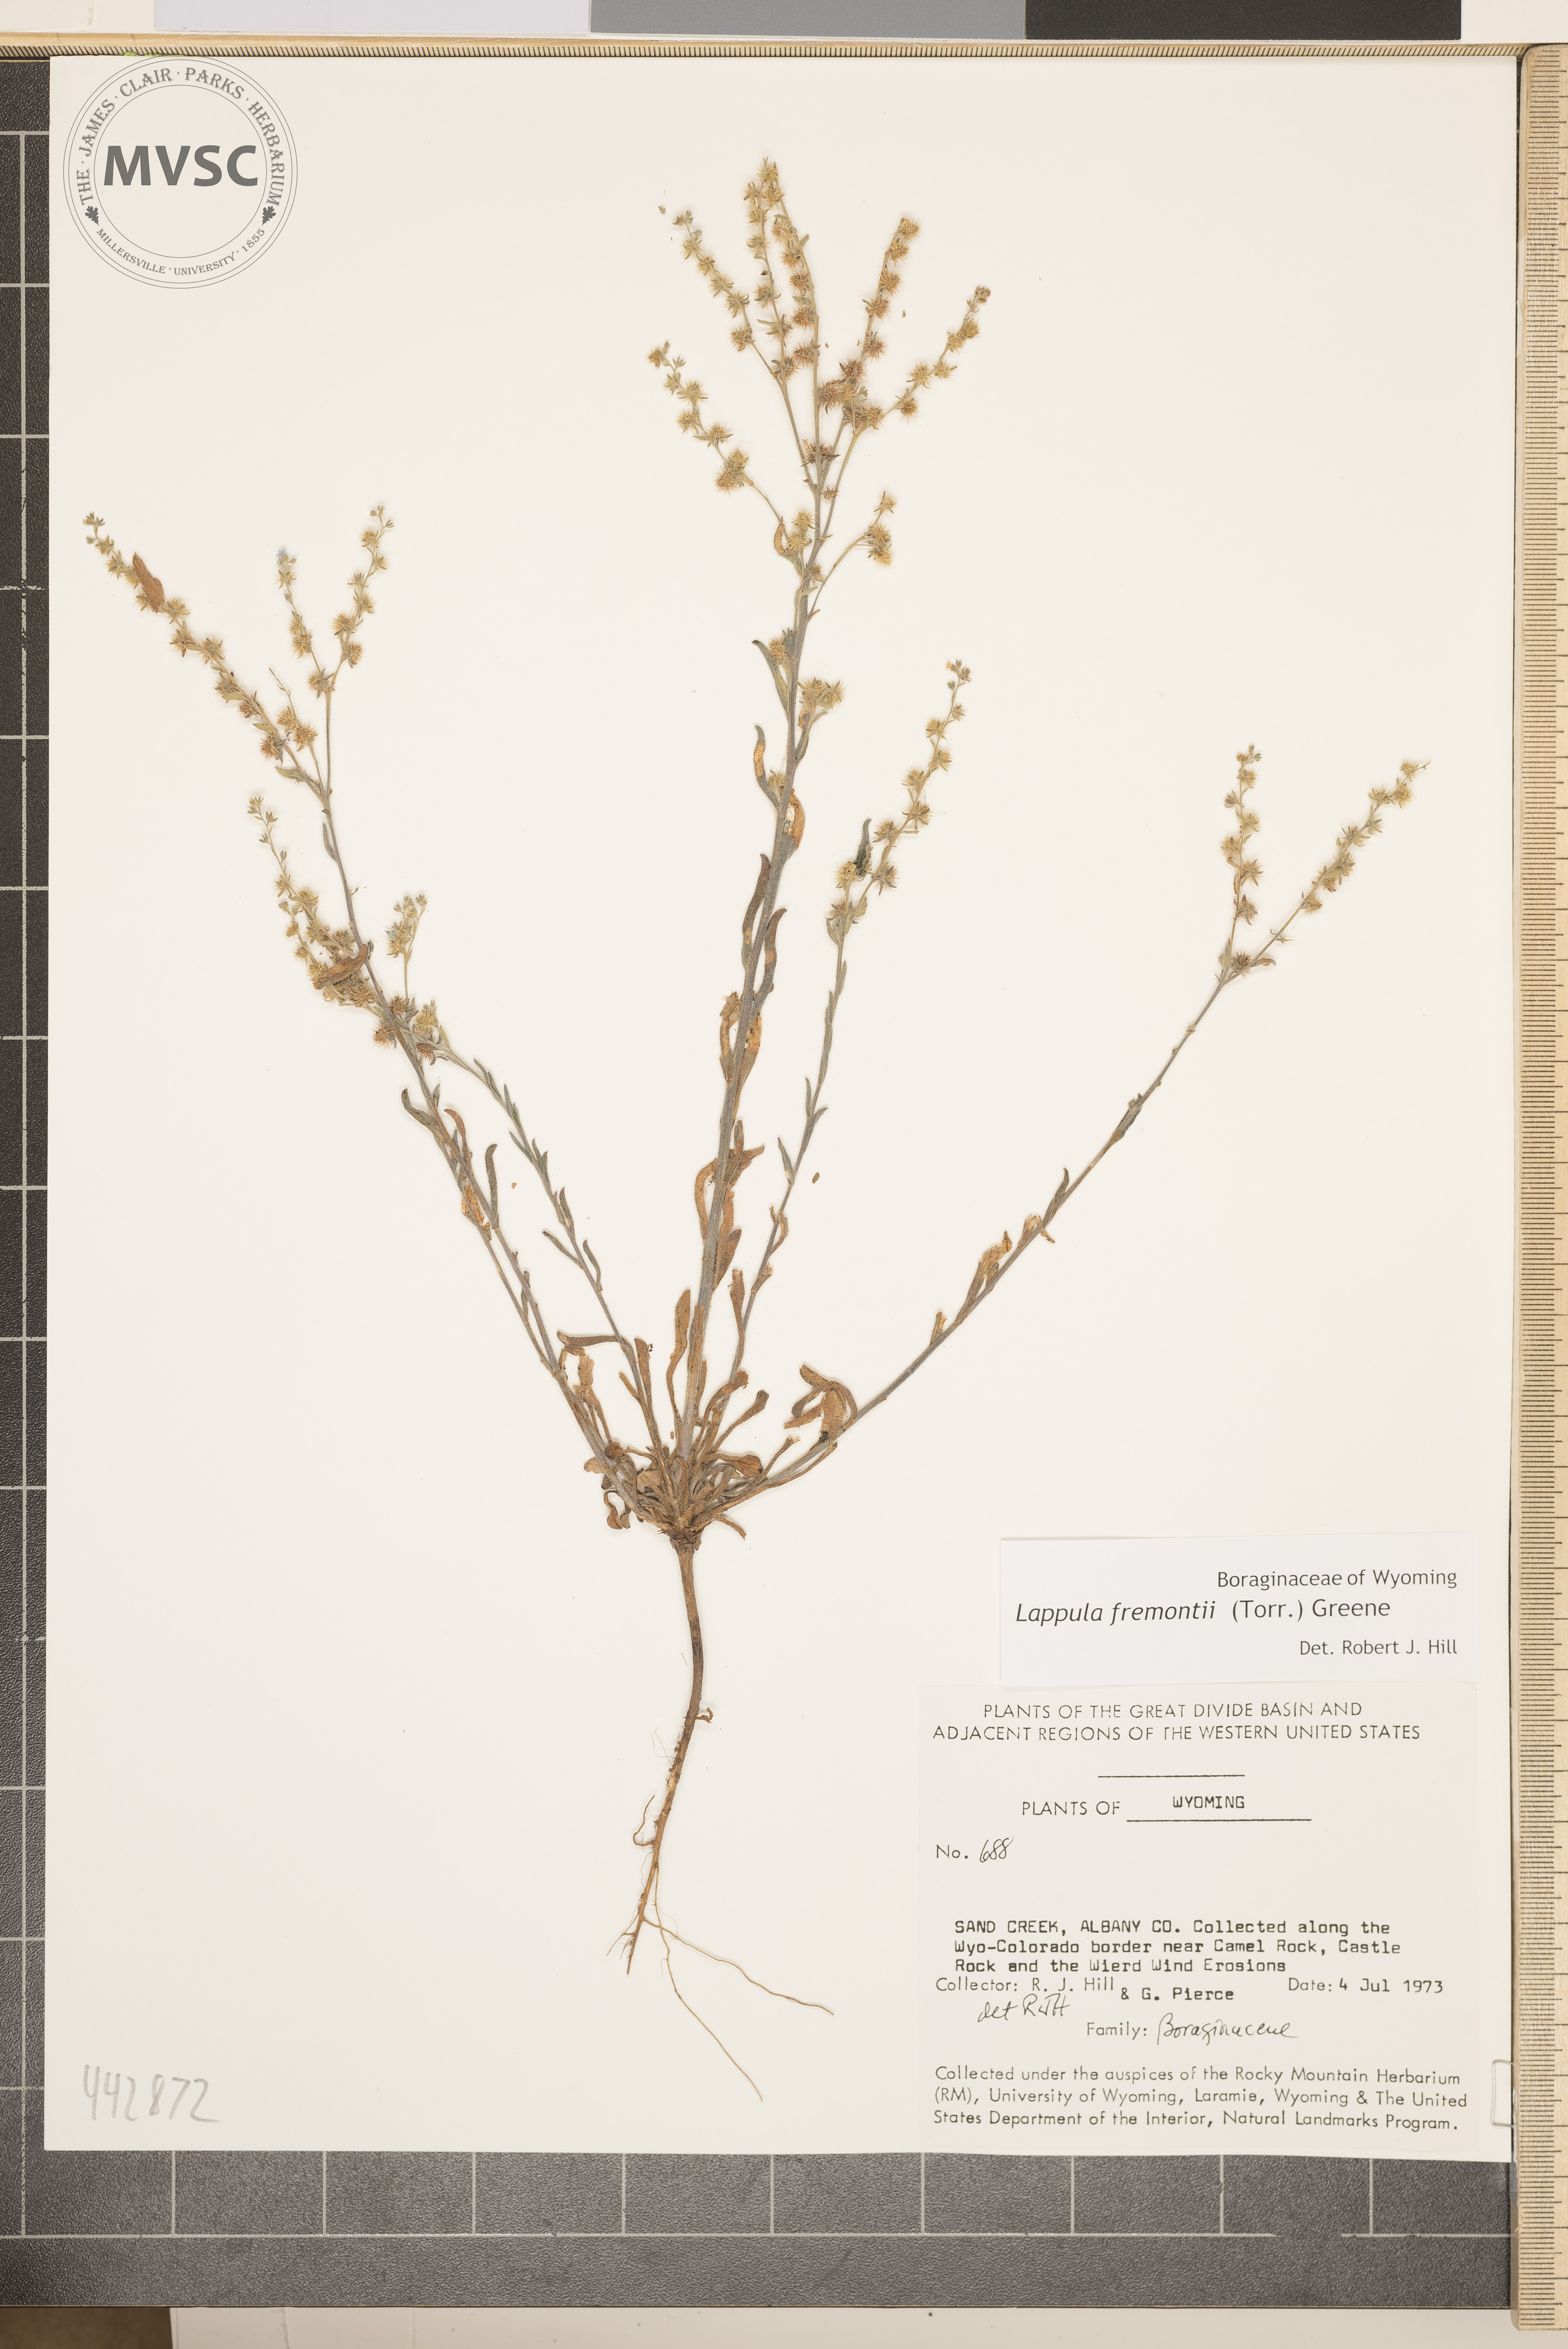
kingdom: Plantae
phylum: Tracheophyta
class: Magnoliopsida
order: Boraginales
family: Boraginaceae
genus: Lappula
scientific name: Lappula squarrosa
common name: European stickseed
